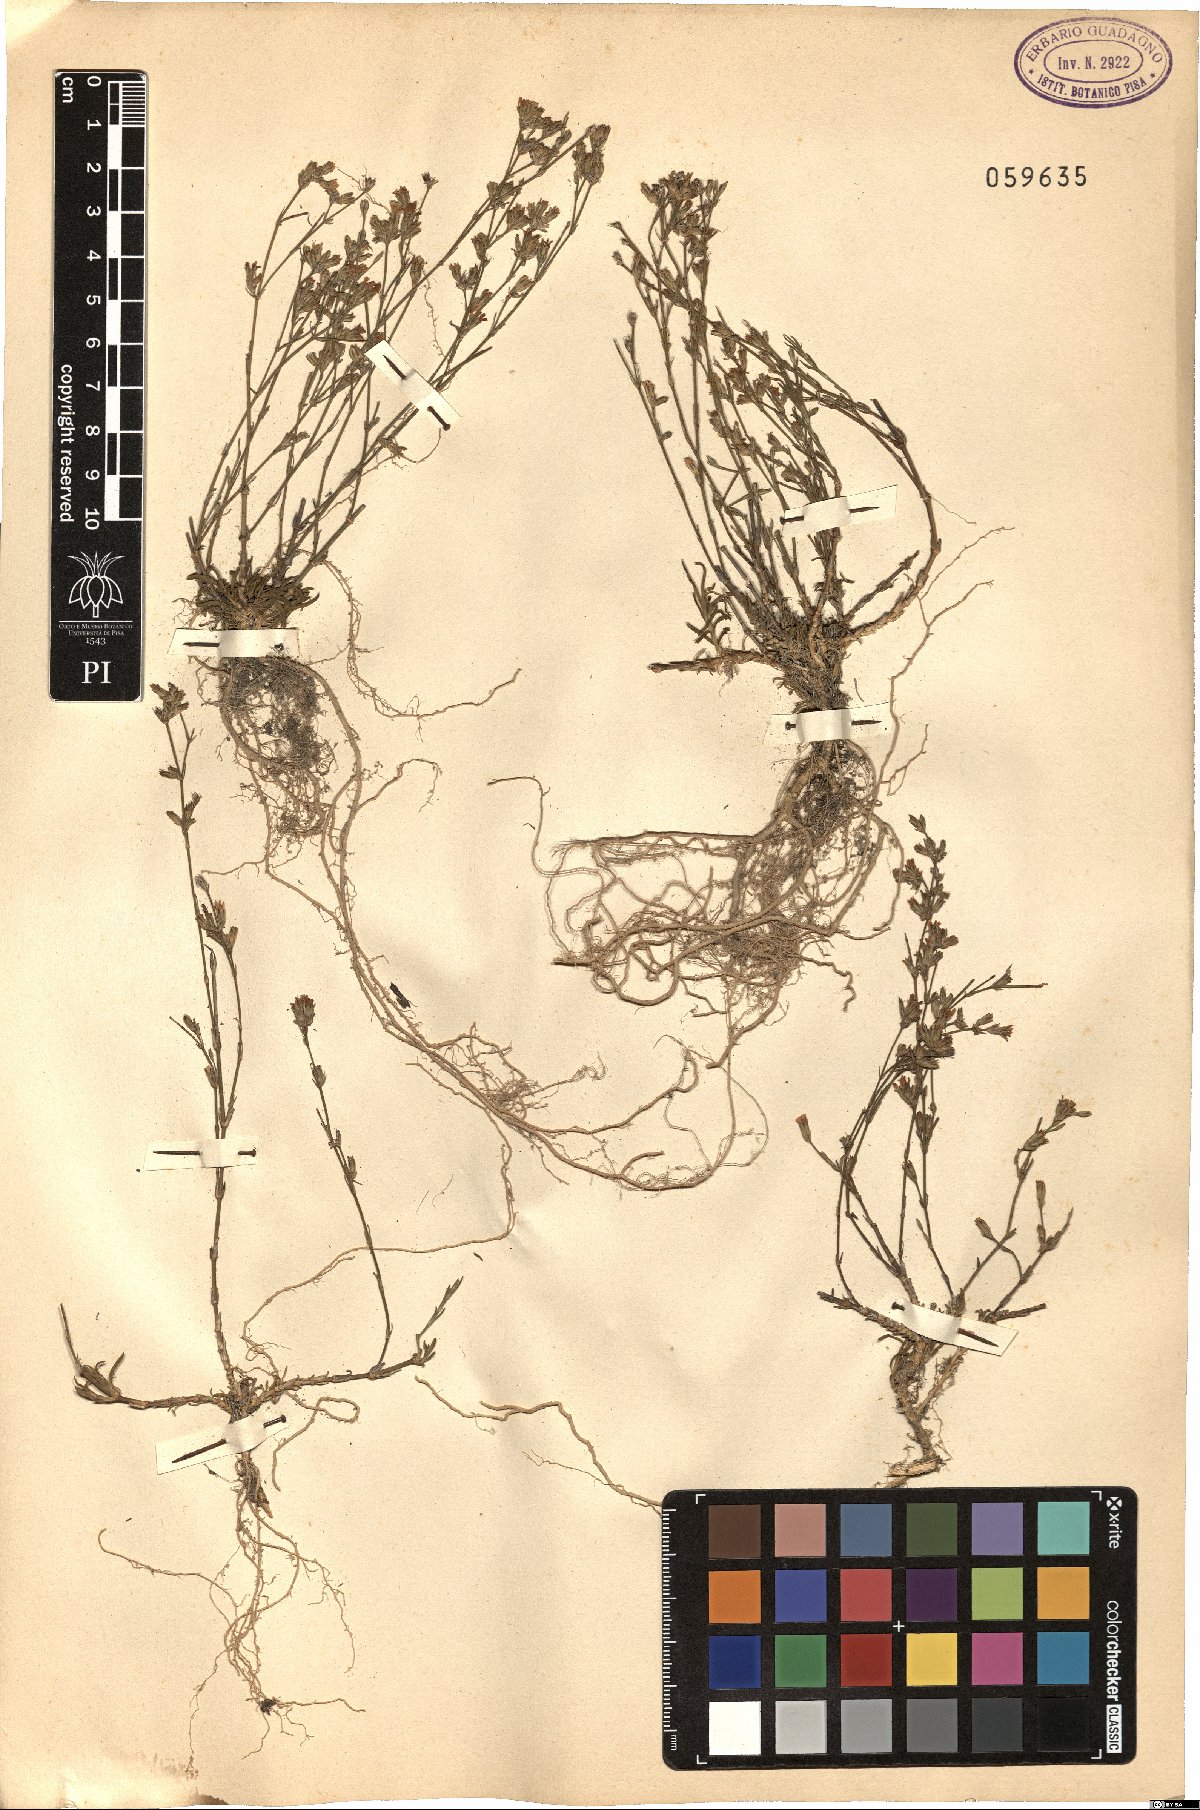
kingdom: Plantae
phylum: Tracheophyta
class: Magnoliopsida
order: Caryophyllales
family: Caryophyllaceae
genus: Petrorhagia
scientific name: Petrorhagia saxifraga
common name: Tunicflower
